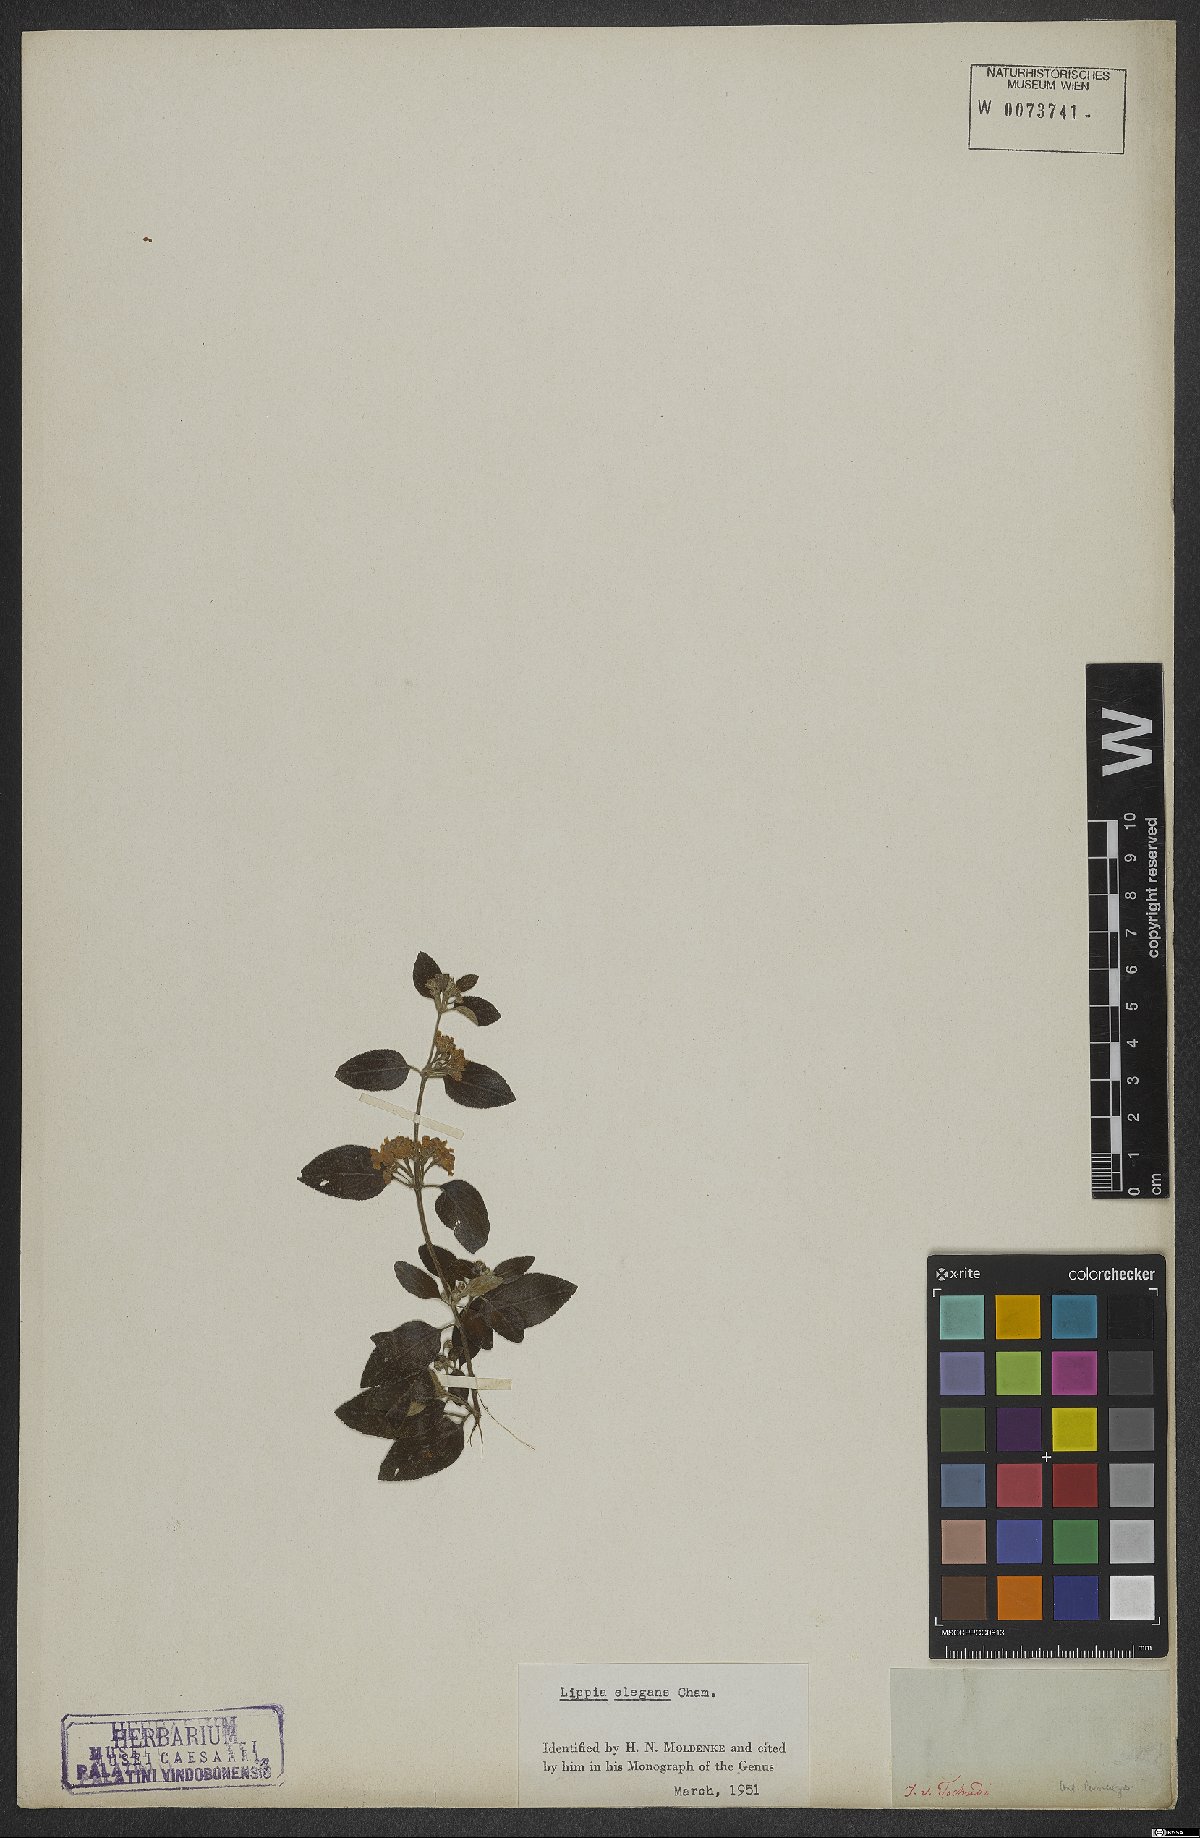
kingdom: Plantae
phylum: Tracheophyta
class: Magnoliopsida
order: Lamiales
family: Verbenaceae
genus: Lippia
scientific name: Lippia origanoides
